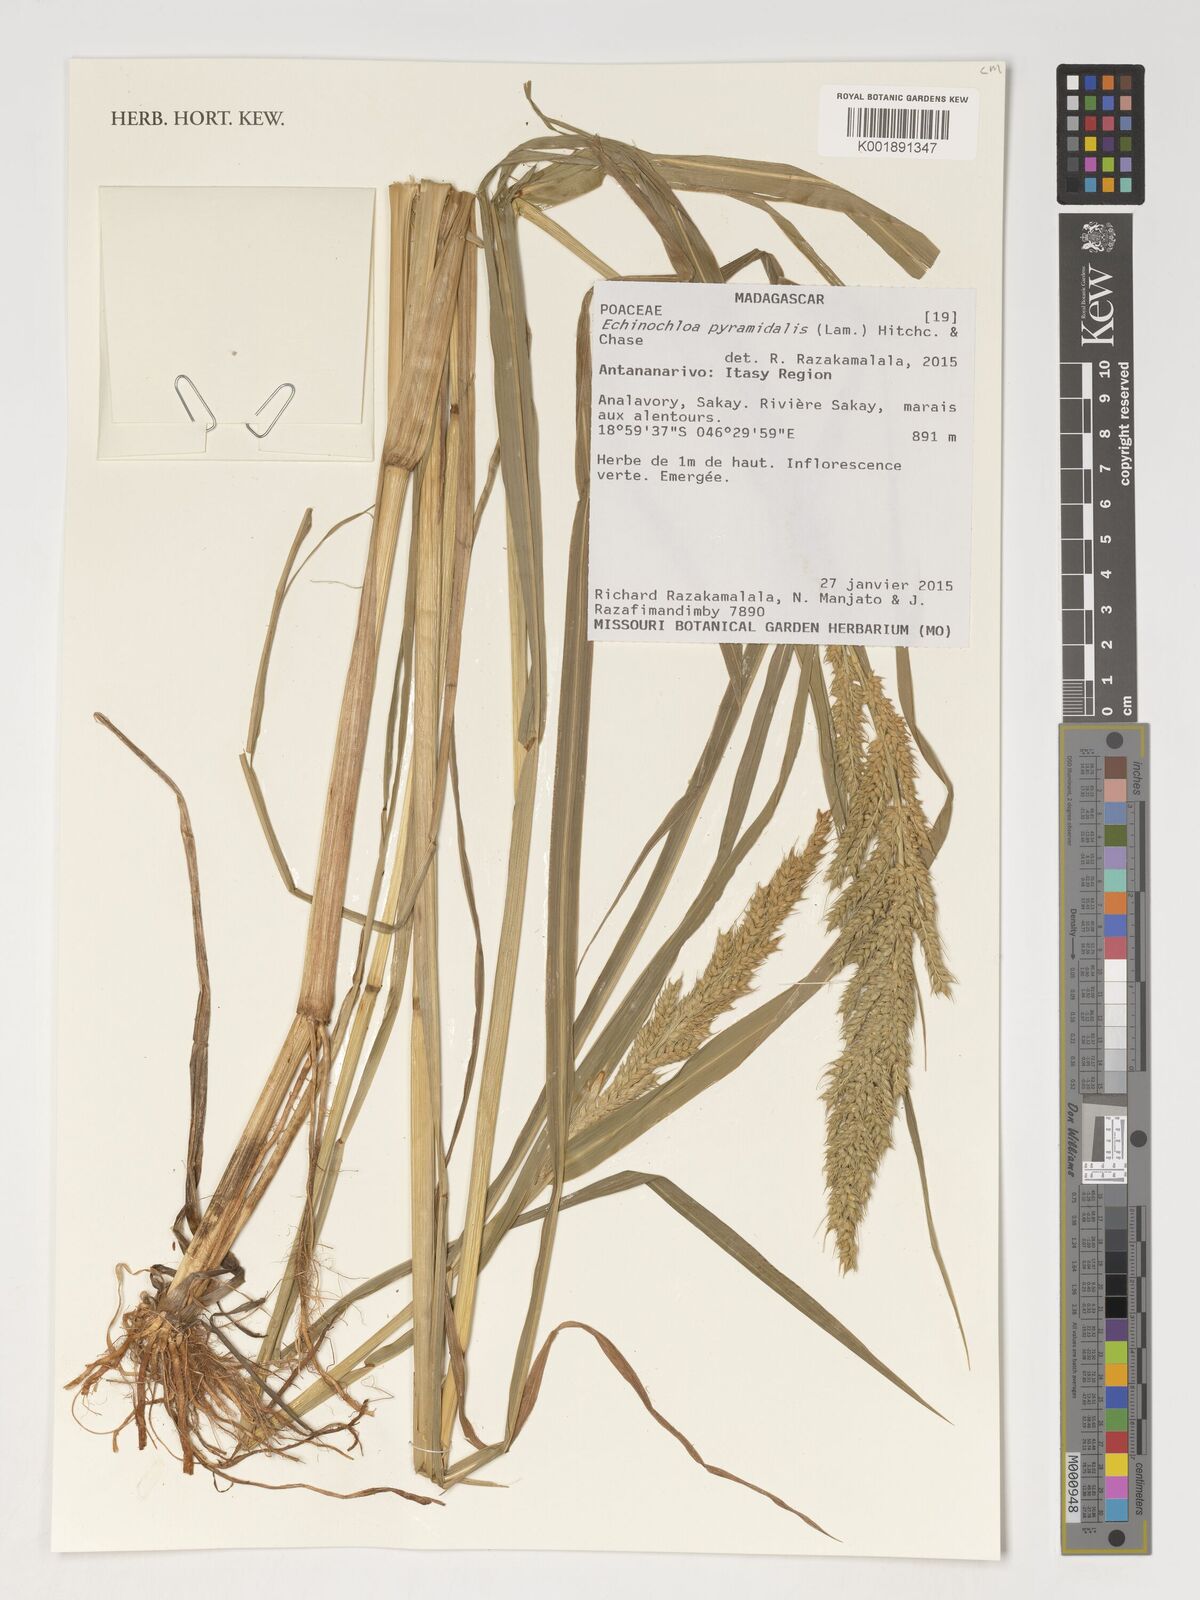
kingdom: Plantae
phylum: Tracheophyta
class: Liliopsida
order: Poales
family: Poaceae
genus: Echinochloa
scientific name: Echinochloa pyramidalis
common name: Antelope grass
